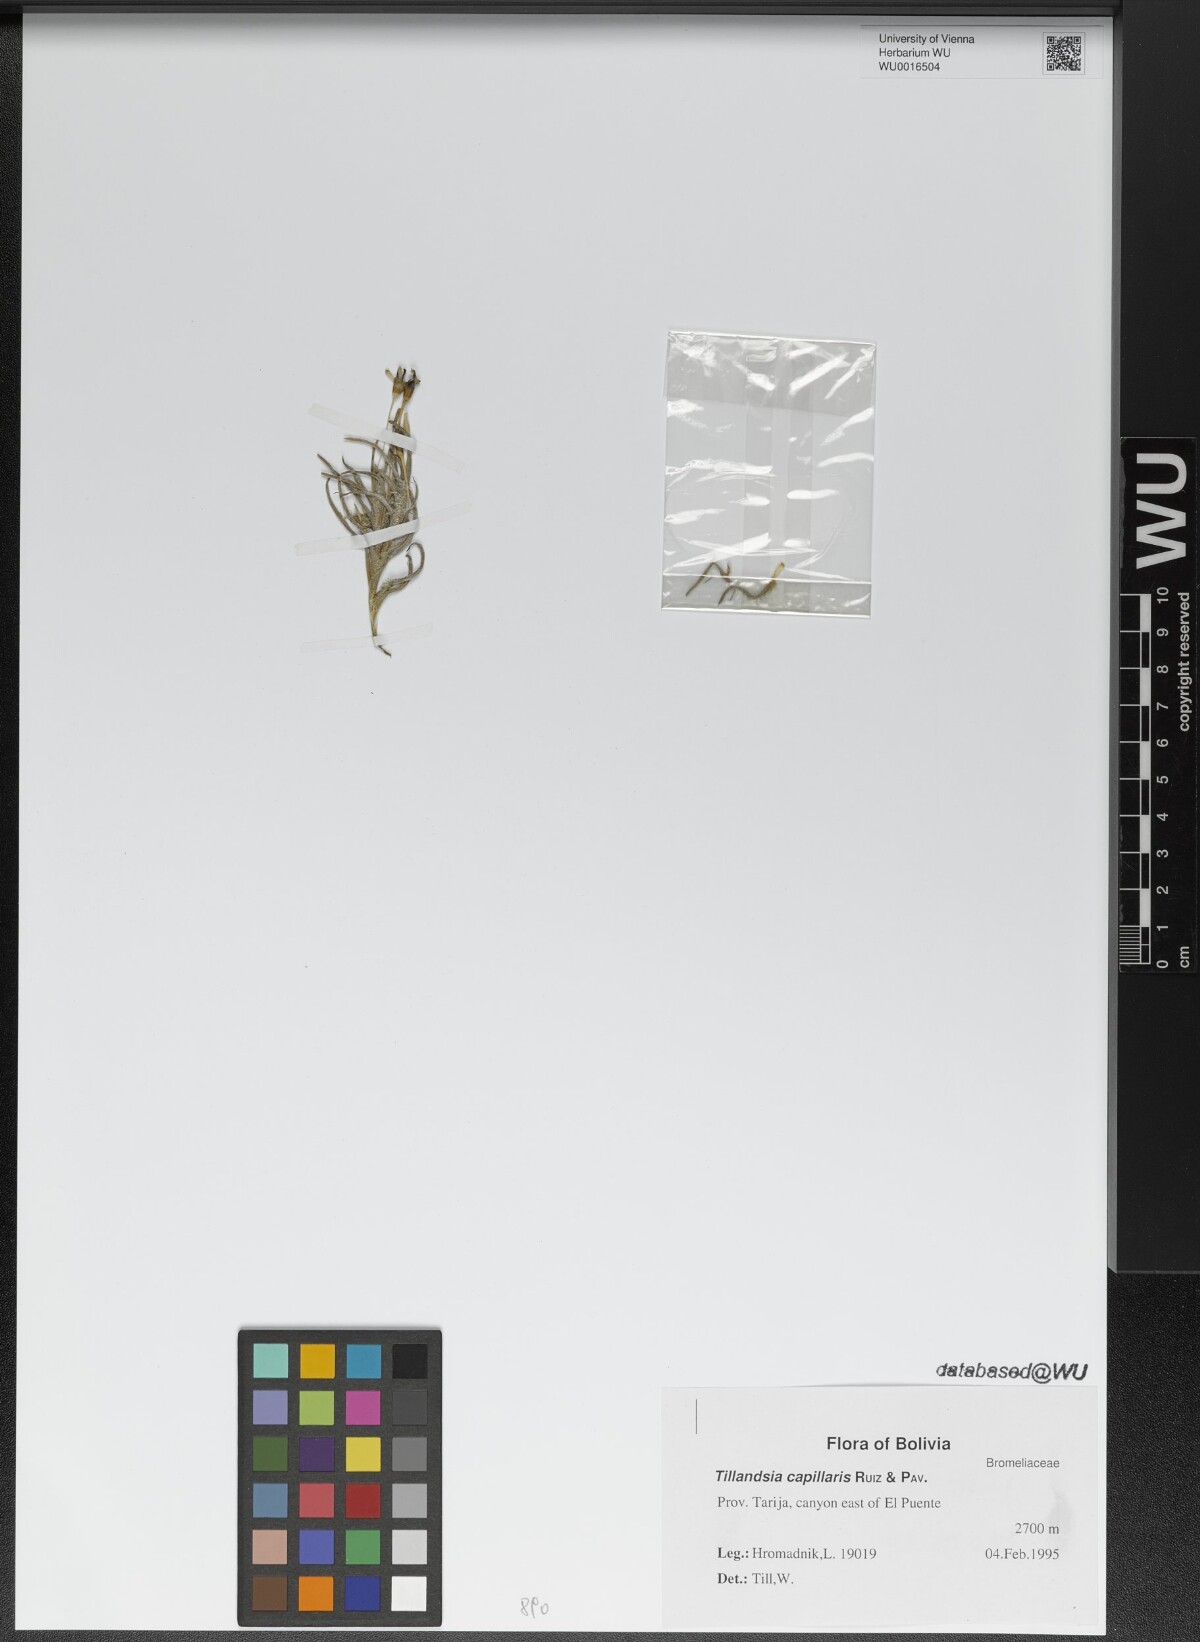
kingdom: Plantae
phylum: Tracheophyta
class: Liliopsida
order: Poales
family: Bromeliaceae
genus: Tillandsia
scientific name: Tillandsia capillaris
